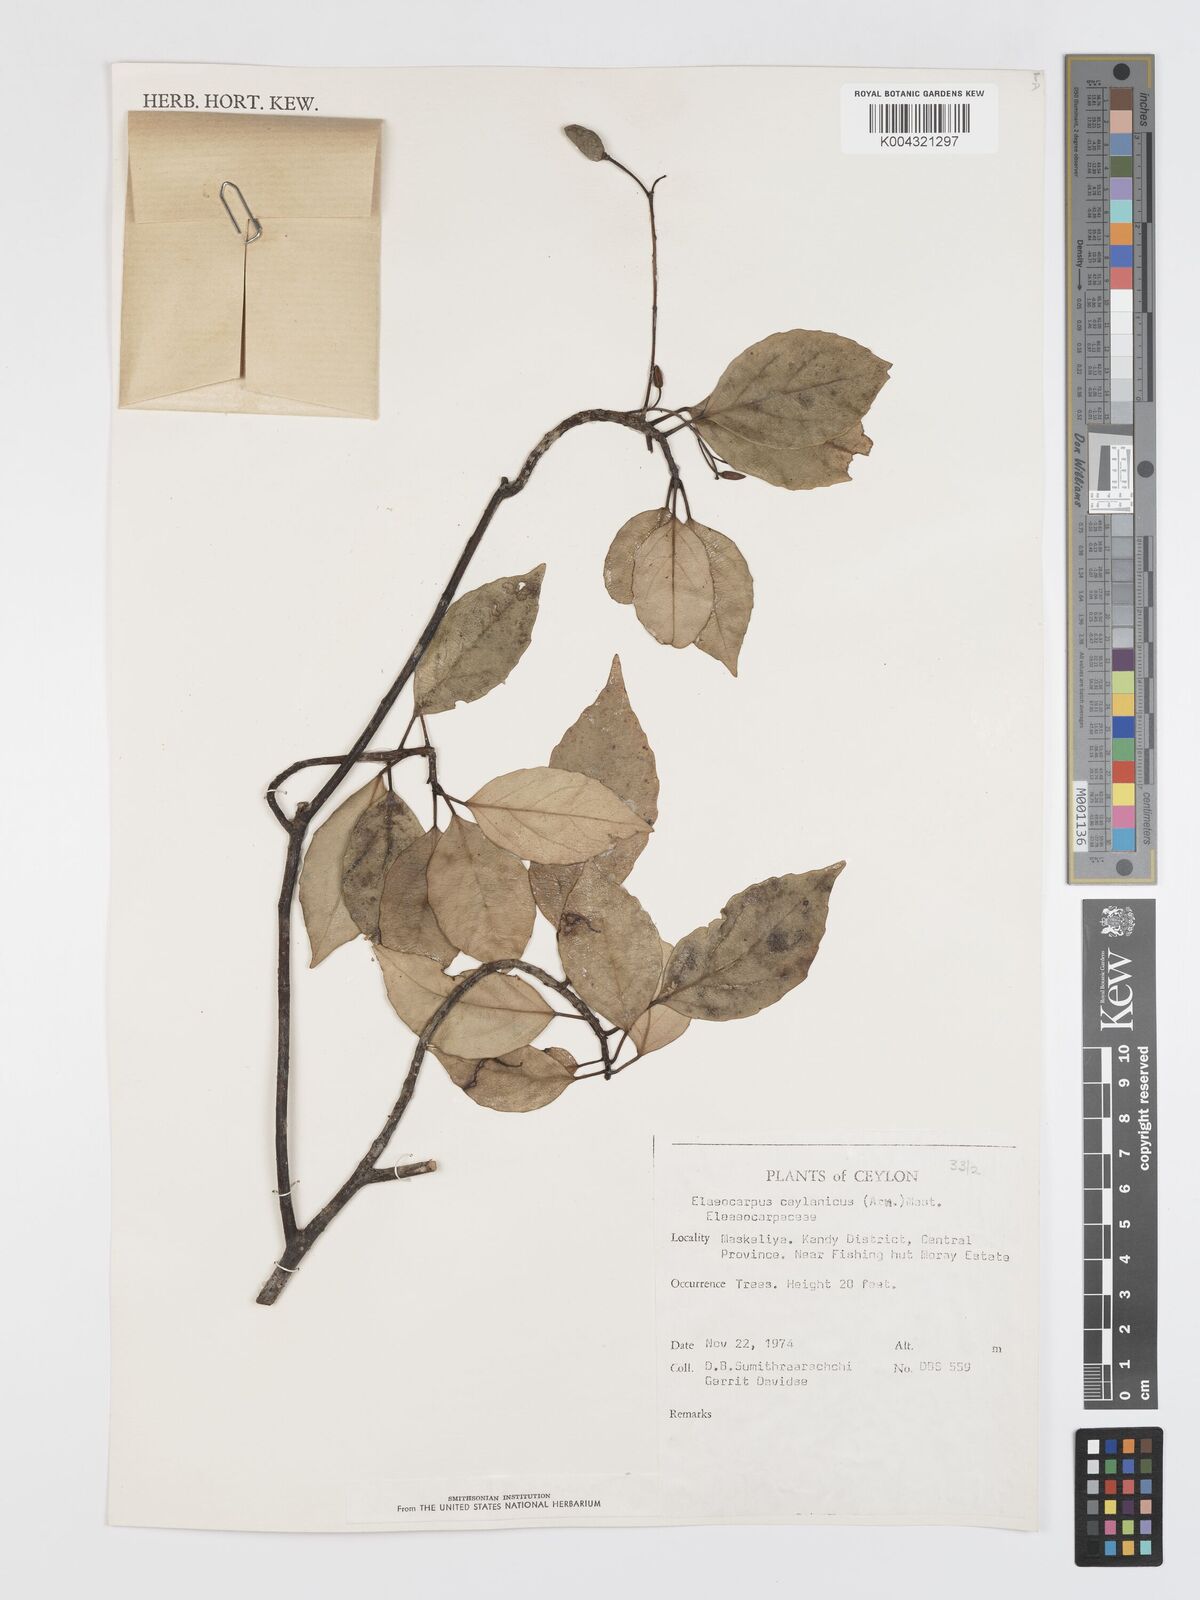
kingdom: Plantae
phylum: Tracheophyta
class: Magnoliopsida
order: Oxalidales
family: Elaeocarpaceae
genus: Elaeocarpus
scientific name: Elaeocarpus ceylanicus
